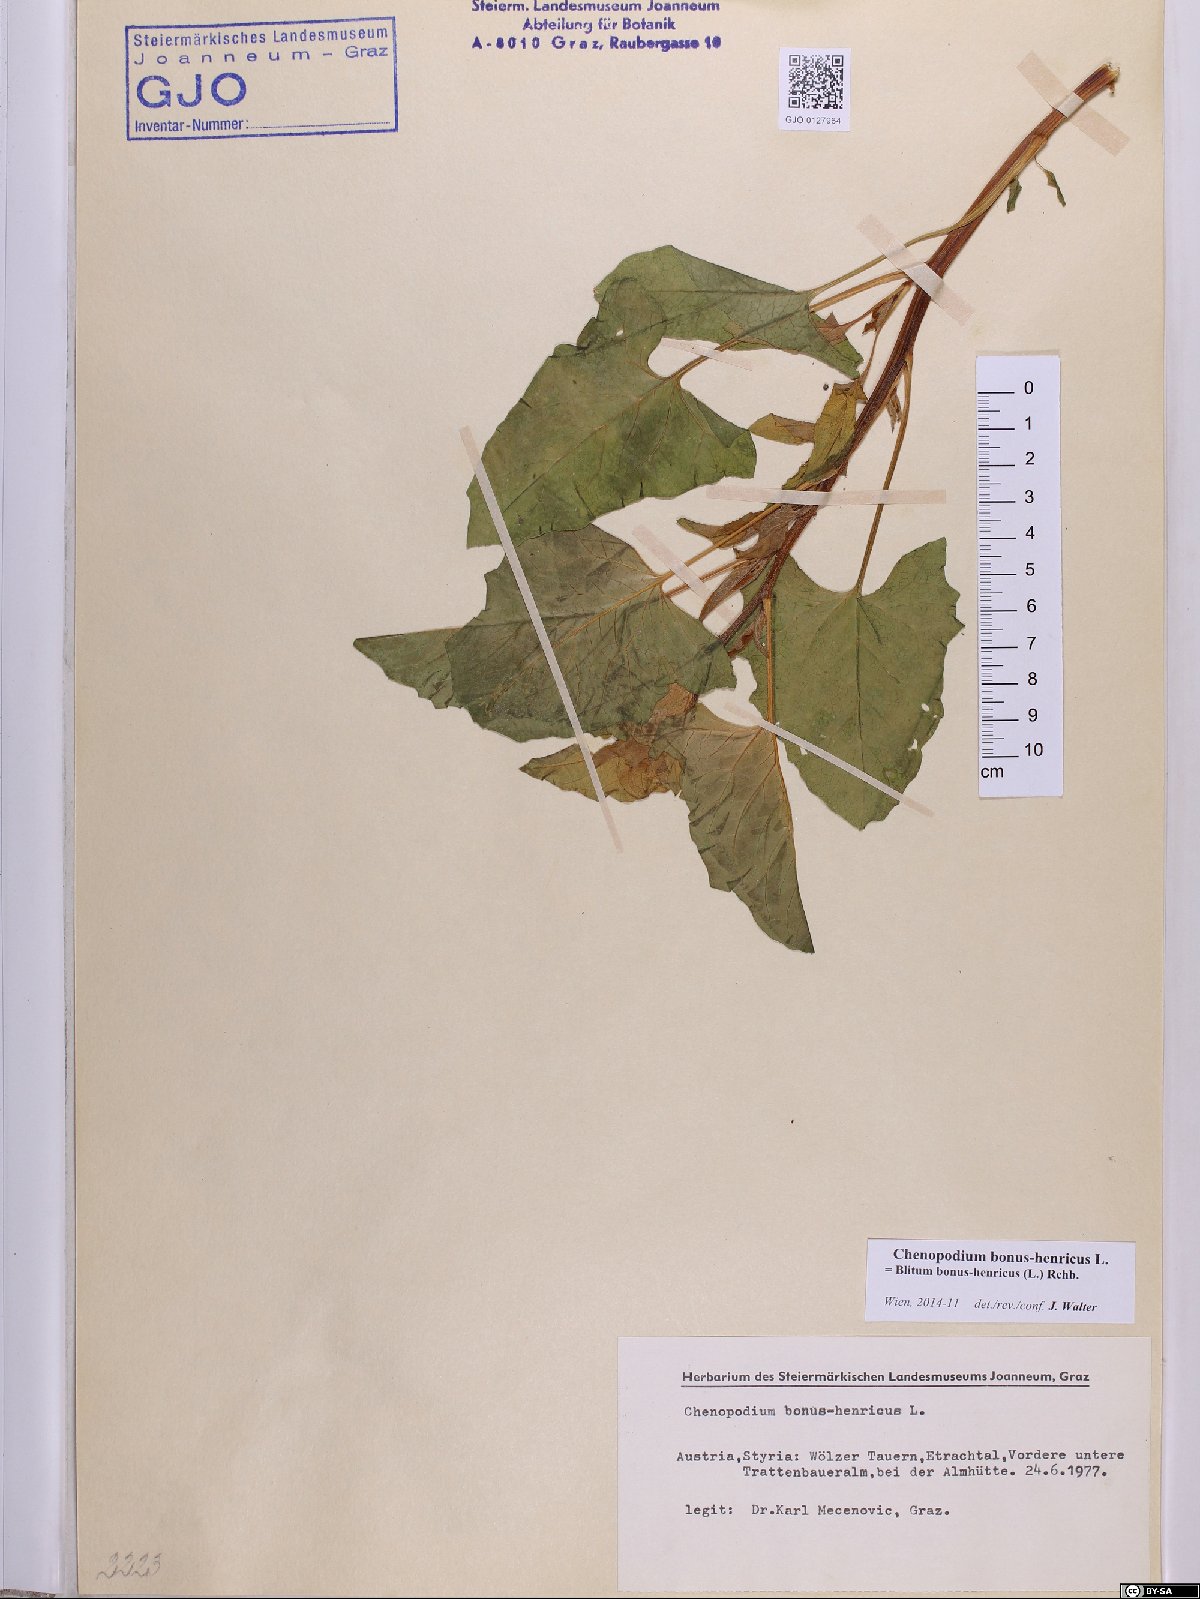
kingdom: Plantae
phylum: Tracheophyta
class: Magnoliopsida
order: Caryophyllales
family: Amaranthaceae
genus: Blitum
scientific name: Blitum bonus-henricus
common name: Good king henry
